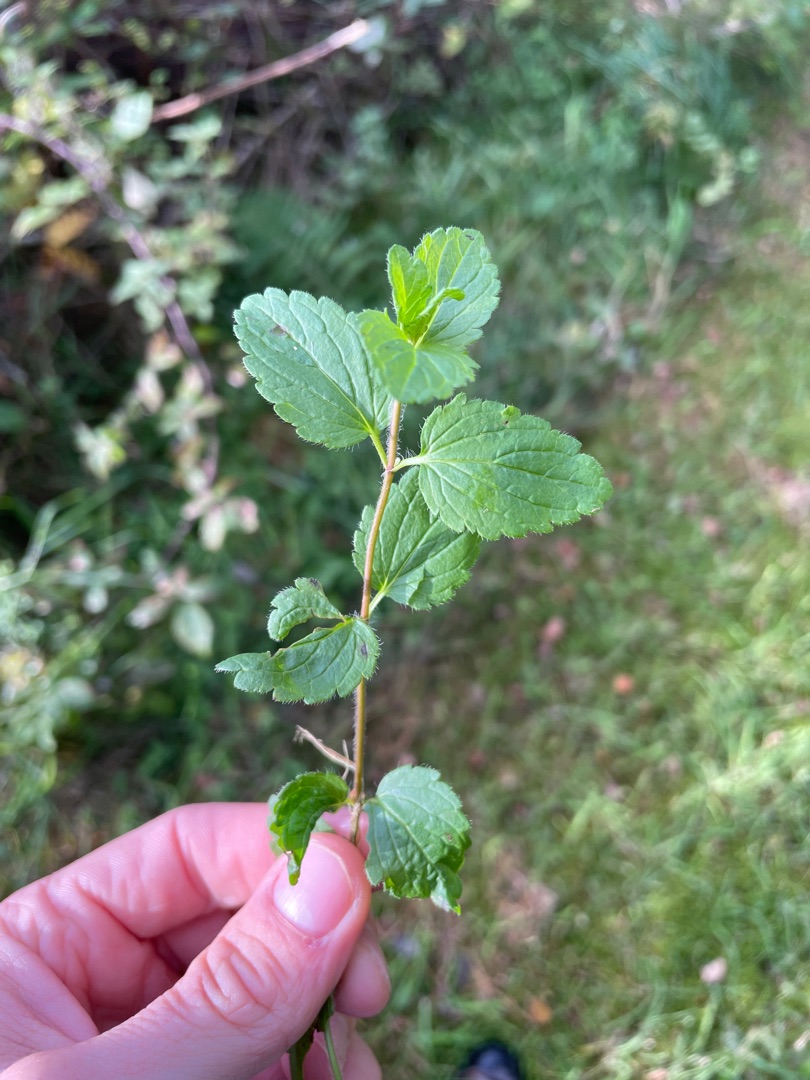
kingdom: Plantae
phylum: Tracheophyta
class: Magnoliopsida
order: Lamiales
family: Plantaginaceae
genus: Veronica
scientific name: Veronica chamaedrys
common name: Tveskægget ærenpris
